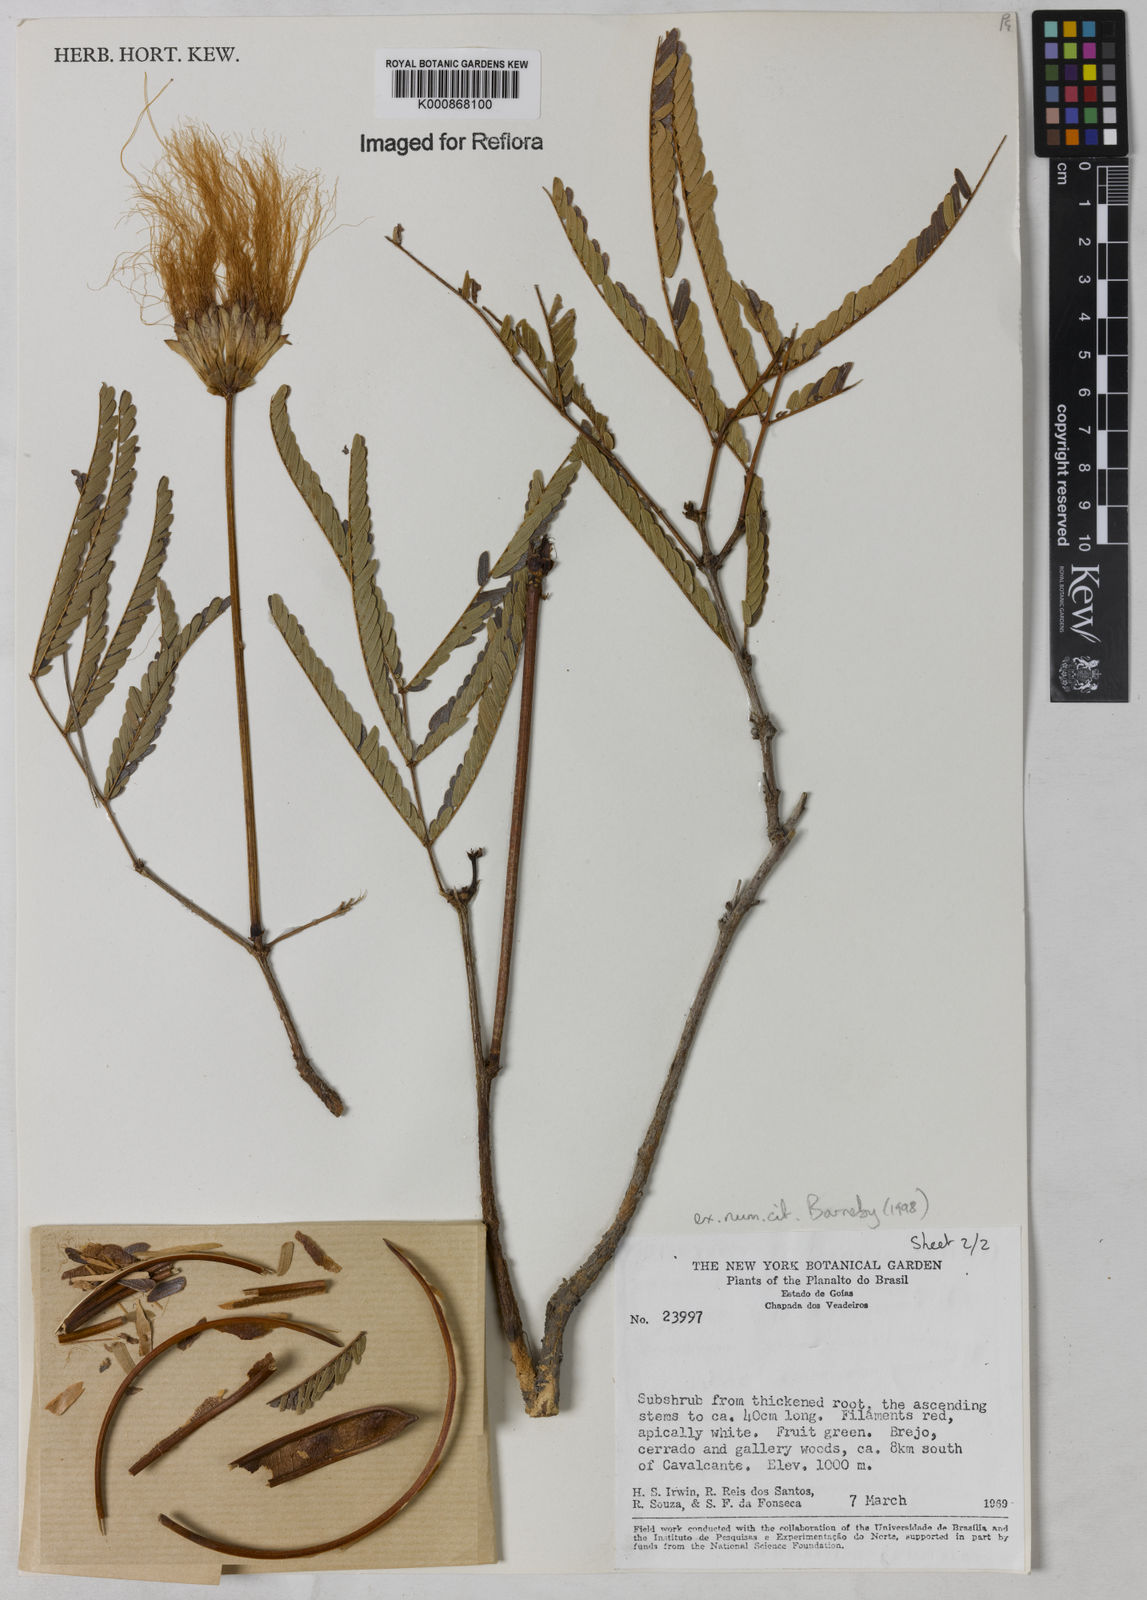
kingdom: Plantae
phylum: Tracheophyta
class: Magnoliopsida
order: Fabales
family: Fabaceae
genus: Calliandra
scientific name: Calliandra gardneri
